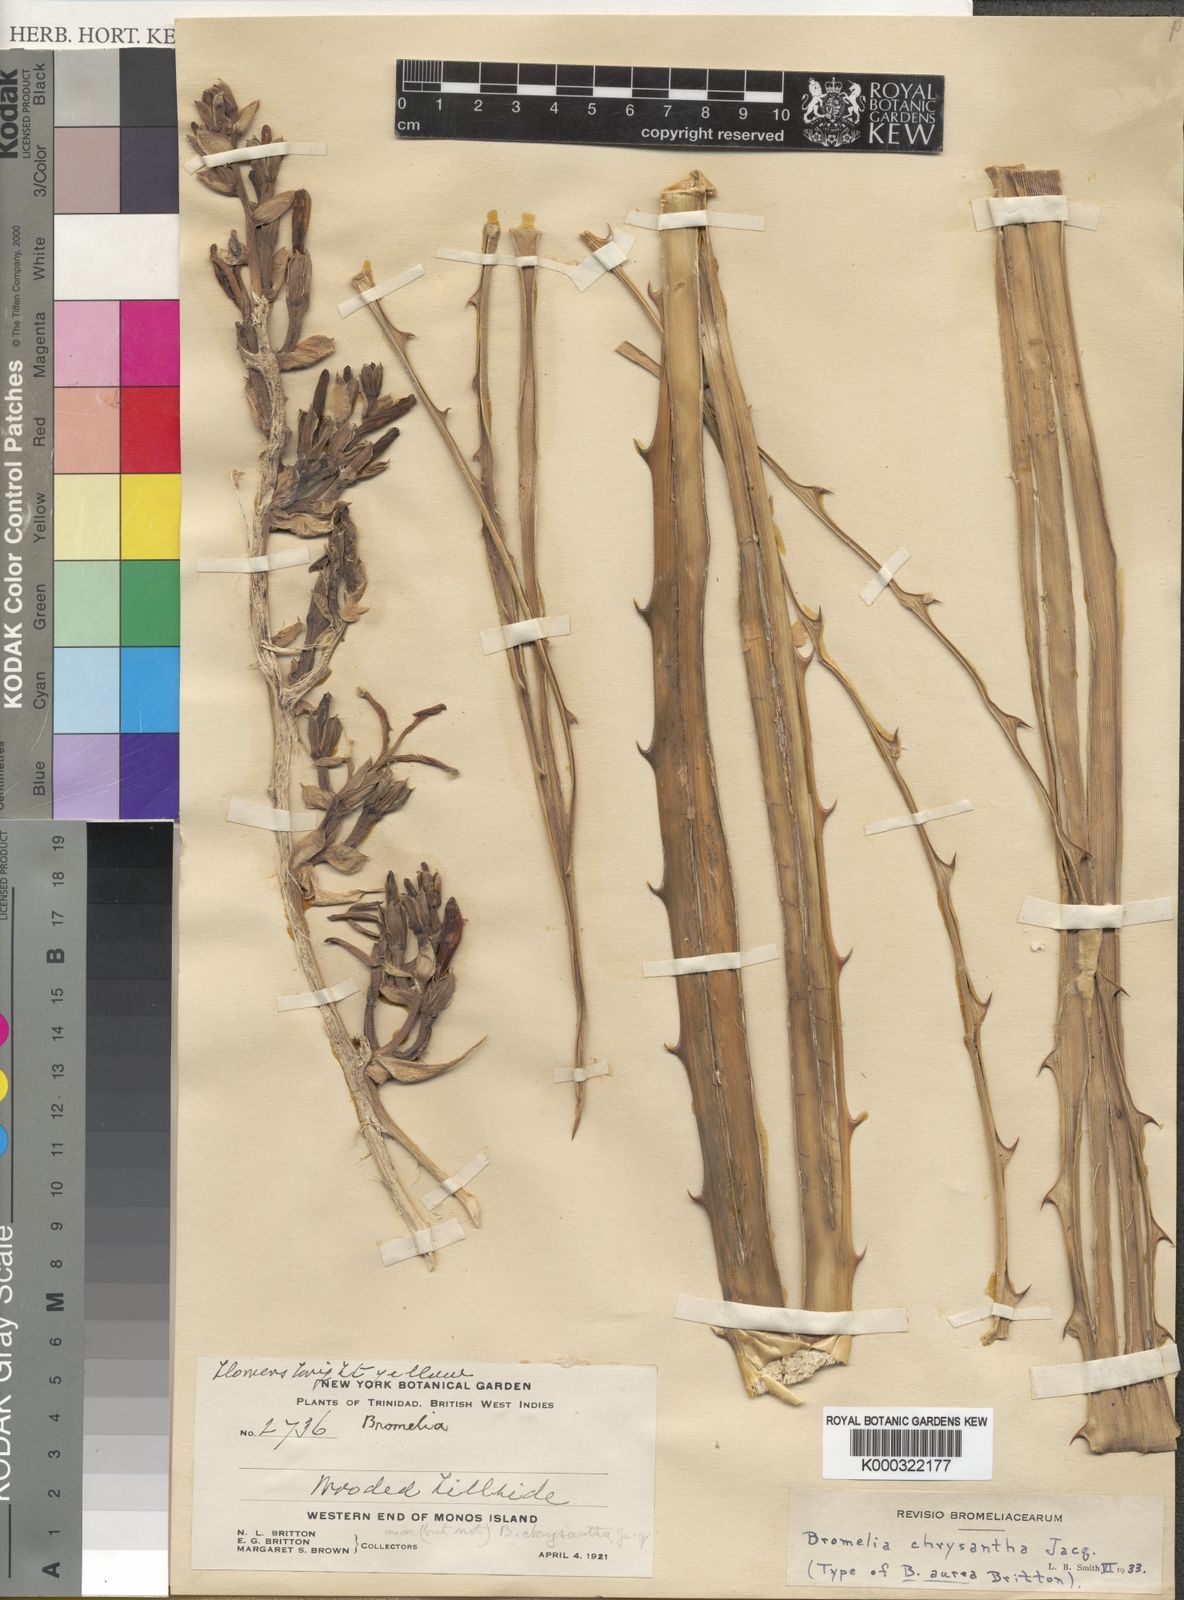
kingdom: Plantae
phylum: Tracheophyta
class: Liliopsida
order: Poales
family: Bromeliaceae
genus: Bromelia
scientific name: Bromelia chrysantha
